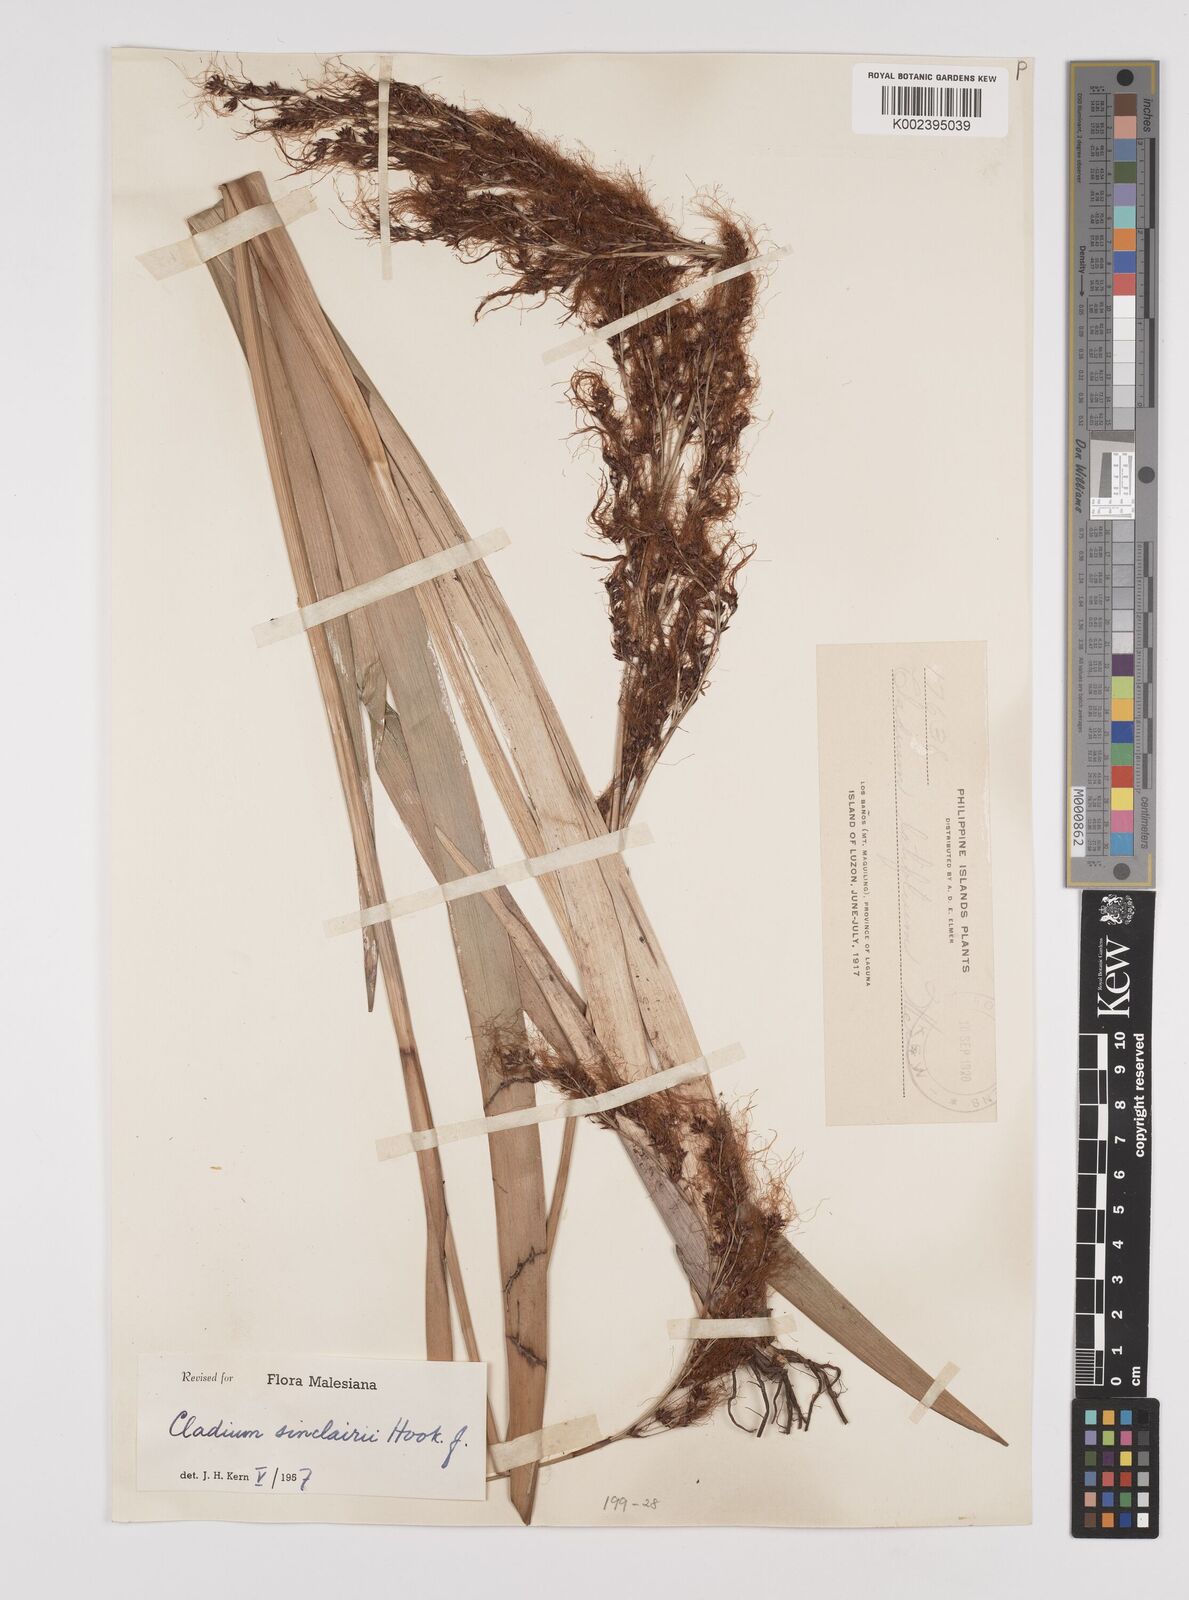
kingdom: Plantae
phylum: Tracheophyta
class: Liliopsida
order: Poales
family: Cyperaceae
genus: Machaerina
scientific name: Machaerina sinclairii
